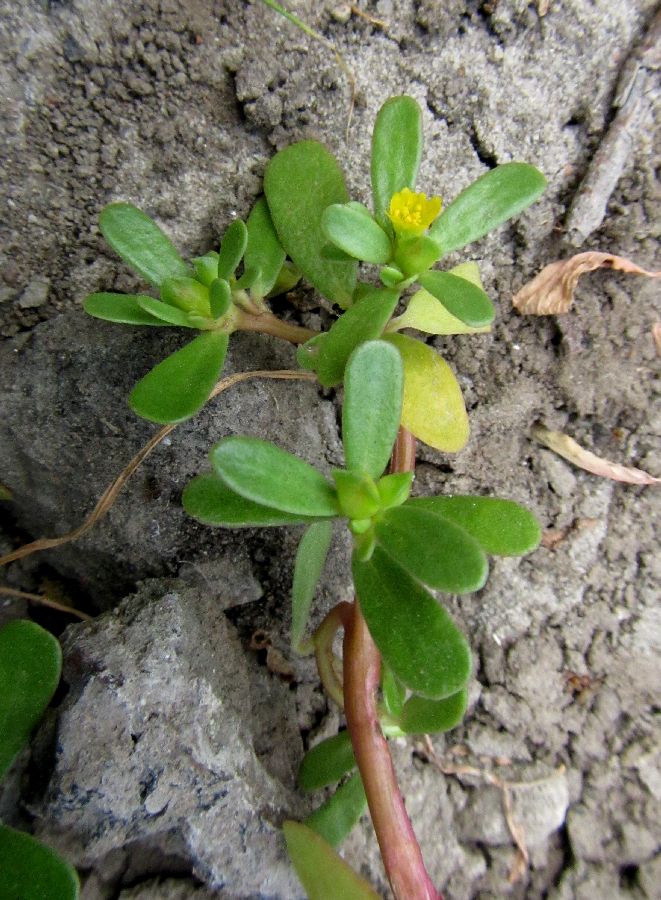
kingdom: Plantae
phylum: Tracheophyta
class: Magnoliopsida
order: Caryophyllales
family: Portulacaceae
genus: Portulaca
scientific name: Portulaca oleracea
